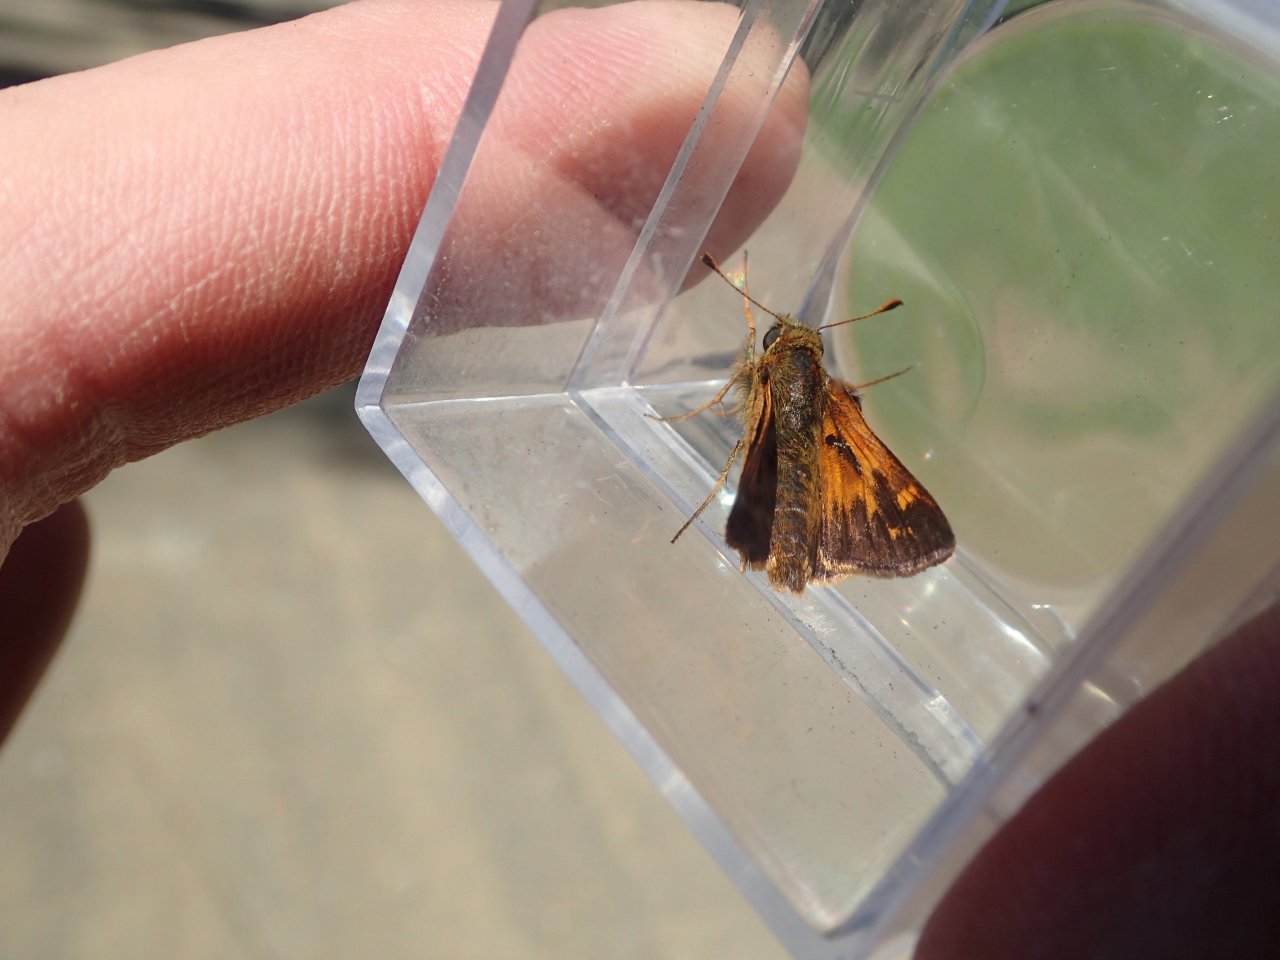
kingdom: Animalia
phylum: Arthropoda
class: Insecta
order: Lepidoptera
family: Hesperiidae
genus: Hesperia
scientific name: Hesperia sassacus
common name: Sassacus Skipper
